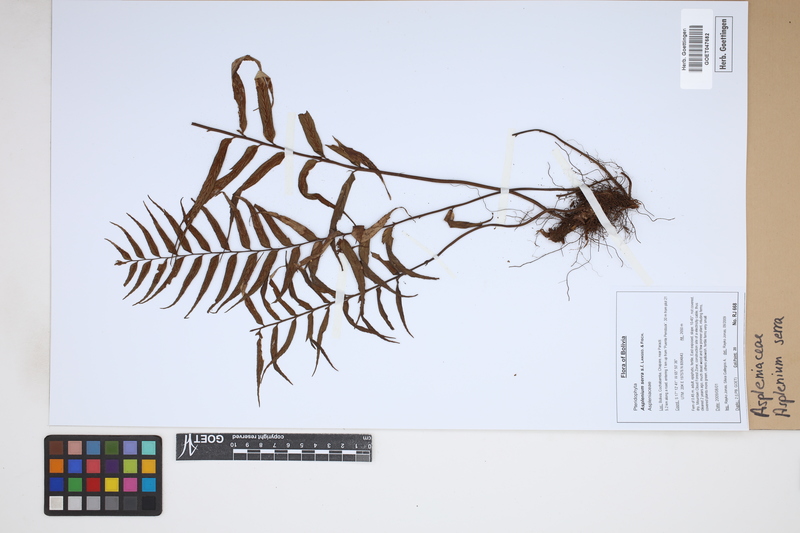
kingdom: Plantae
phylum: Tracheophyta
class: Polypodiopsida
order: Polypodiales
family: Aspleniaceae
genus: Asplenium
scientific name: Asplenium serra
